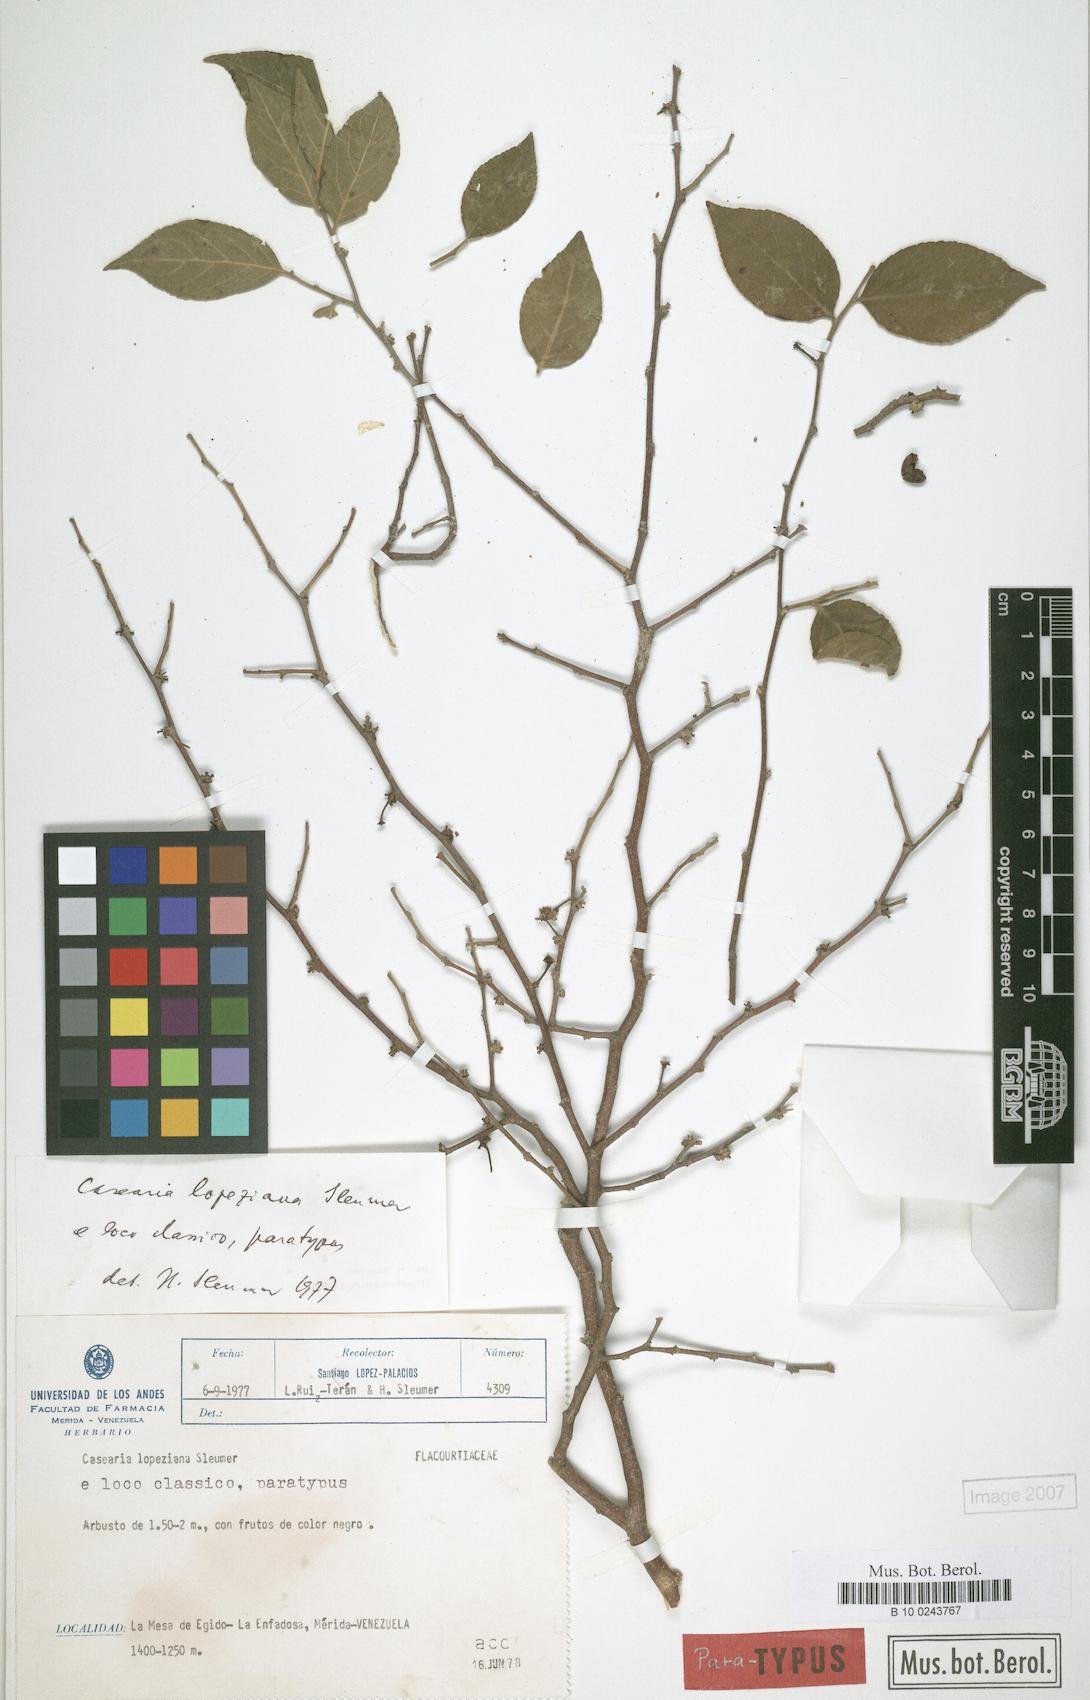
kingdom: Plantae
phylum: Tracheophyta
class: Magnoliopsida
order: Malpighiales
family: Salicaceae
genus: Casearia
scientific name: Casearia lopeziana
